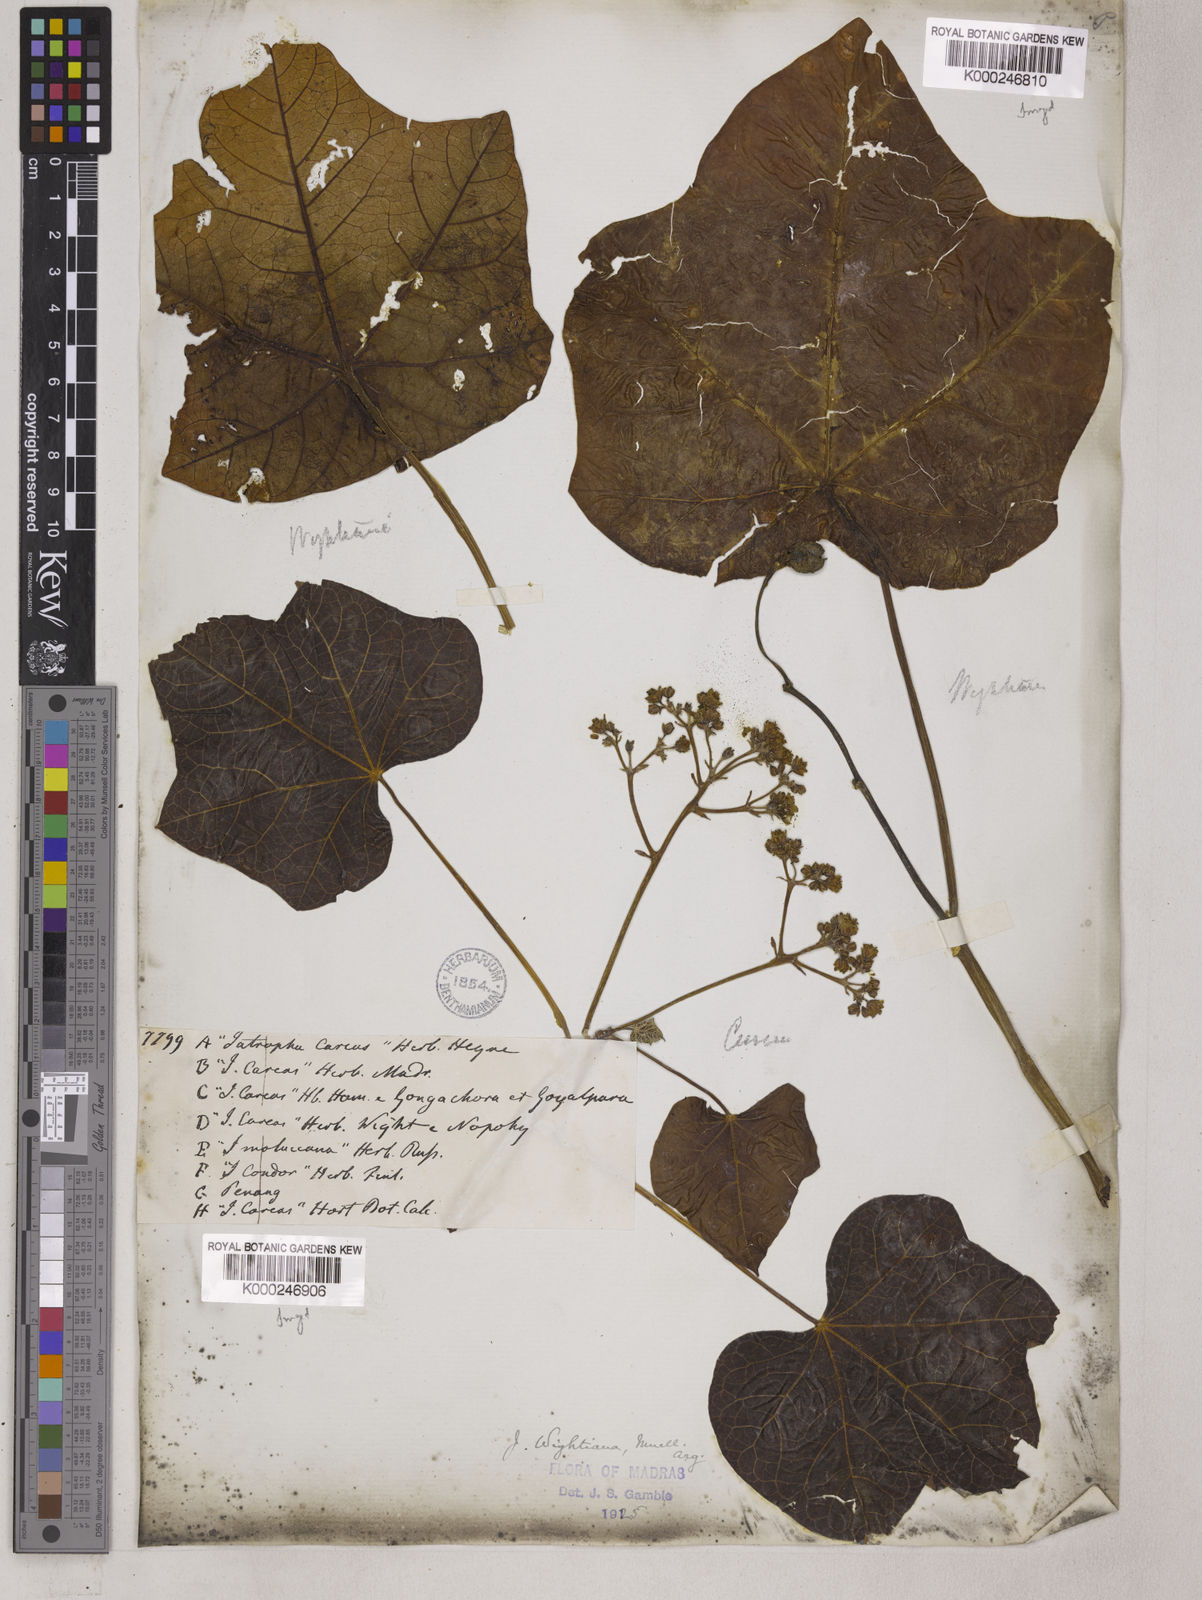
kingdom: Plantae
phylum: Tracheophyta
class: Magnoliopsida
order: Malpighiales
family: Euphorbiaceae
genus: Jatropha
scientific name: Jatropha
